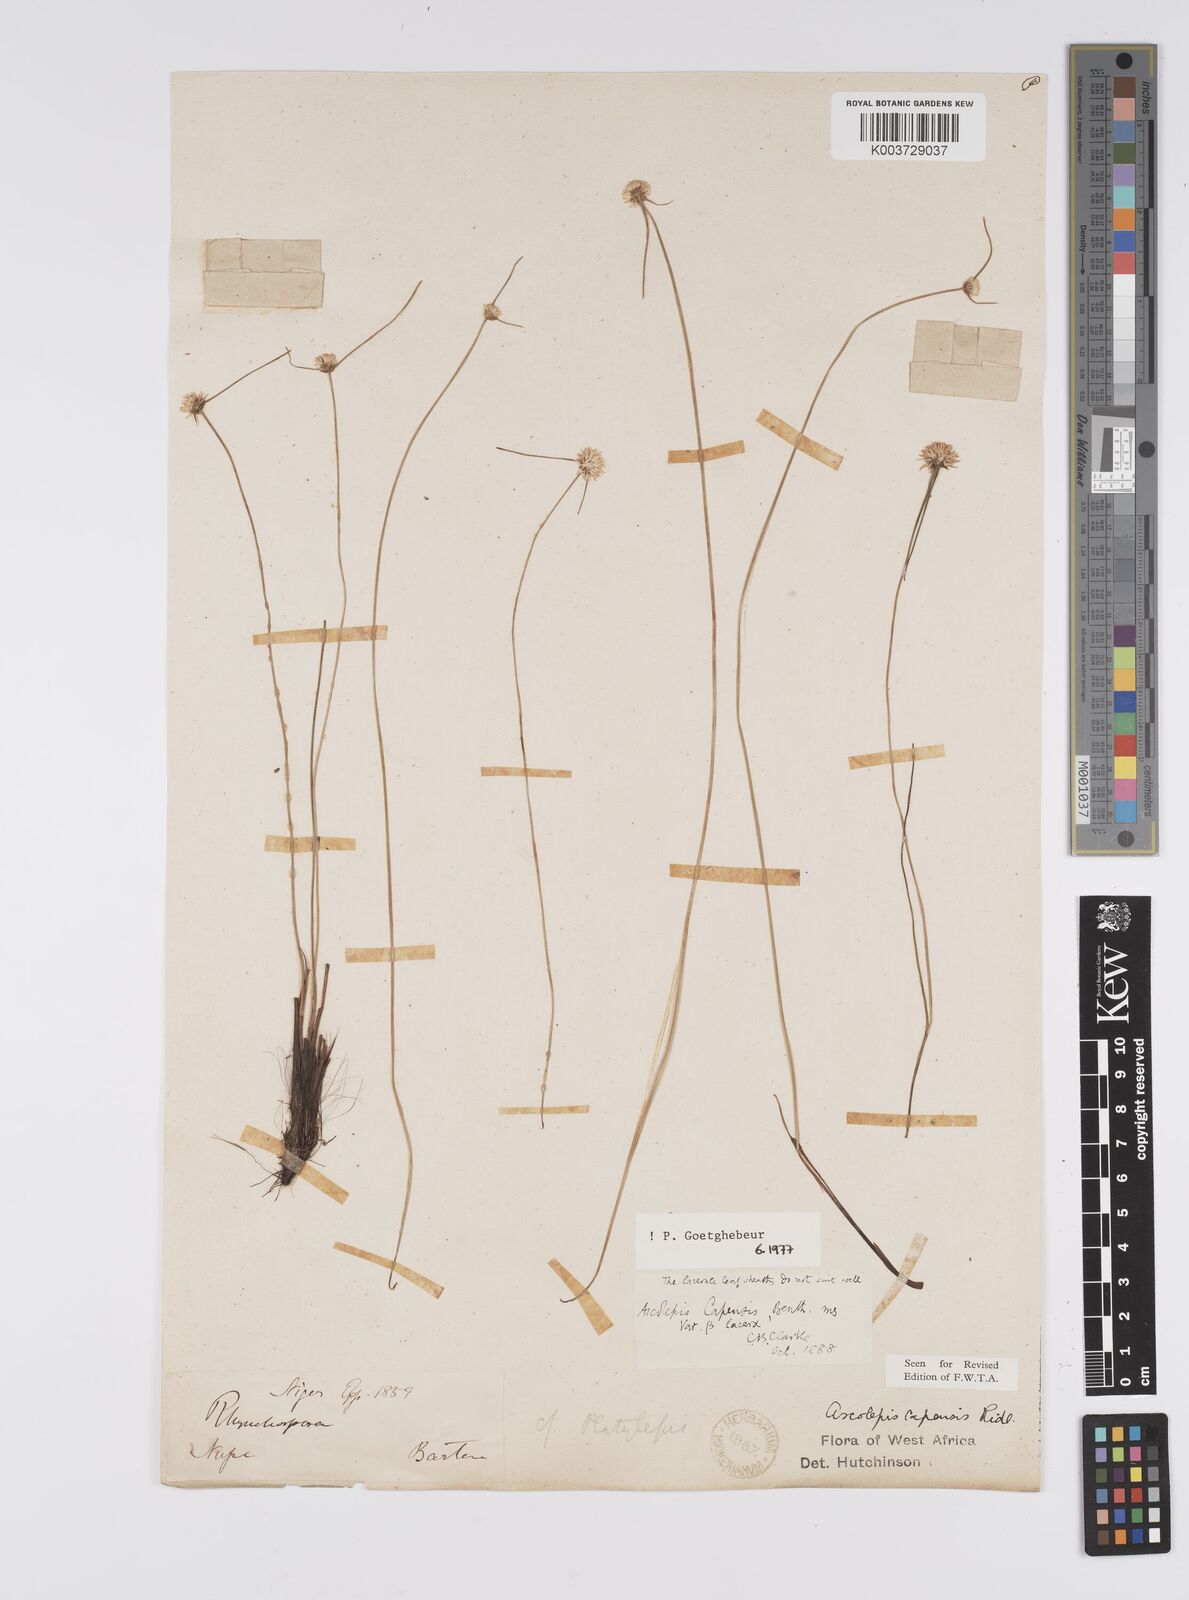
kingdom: Plantae
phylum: Tracheophyta
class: Liliopsida
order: Poales
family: Cyperaceae
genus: Ascolepis
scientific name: Ascolepis
